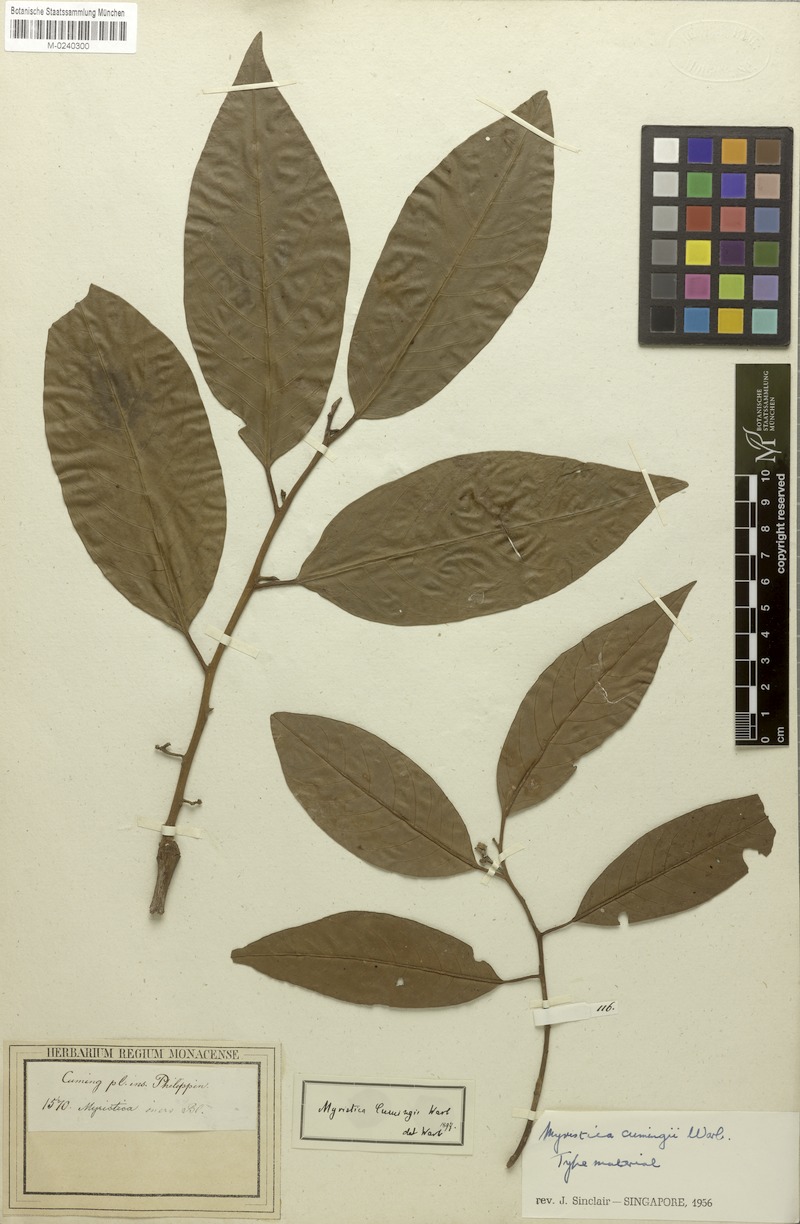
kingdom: Plantae
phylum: Tracheophyta
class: Magnoliopsida
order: Magnoliales
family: Myristicaceae
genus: Myristica
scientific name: Myristica cumingii
